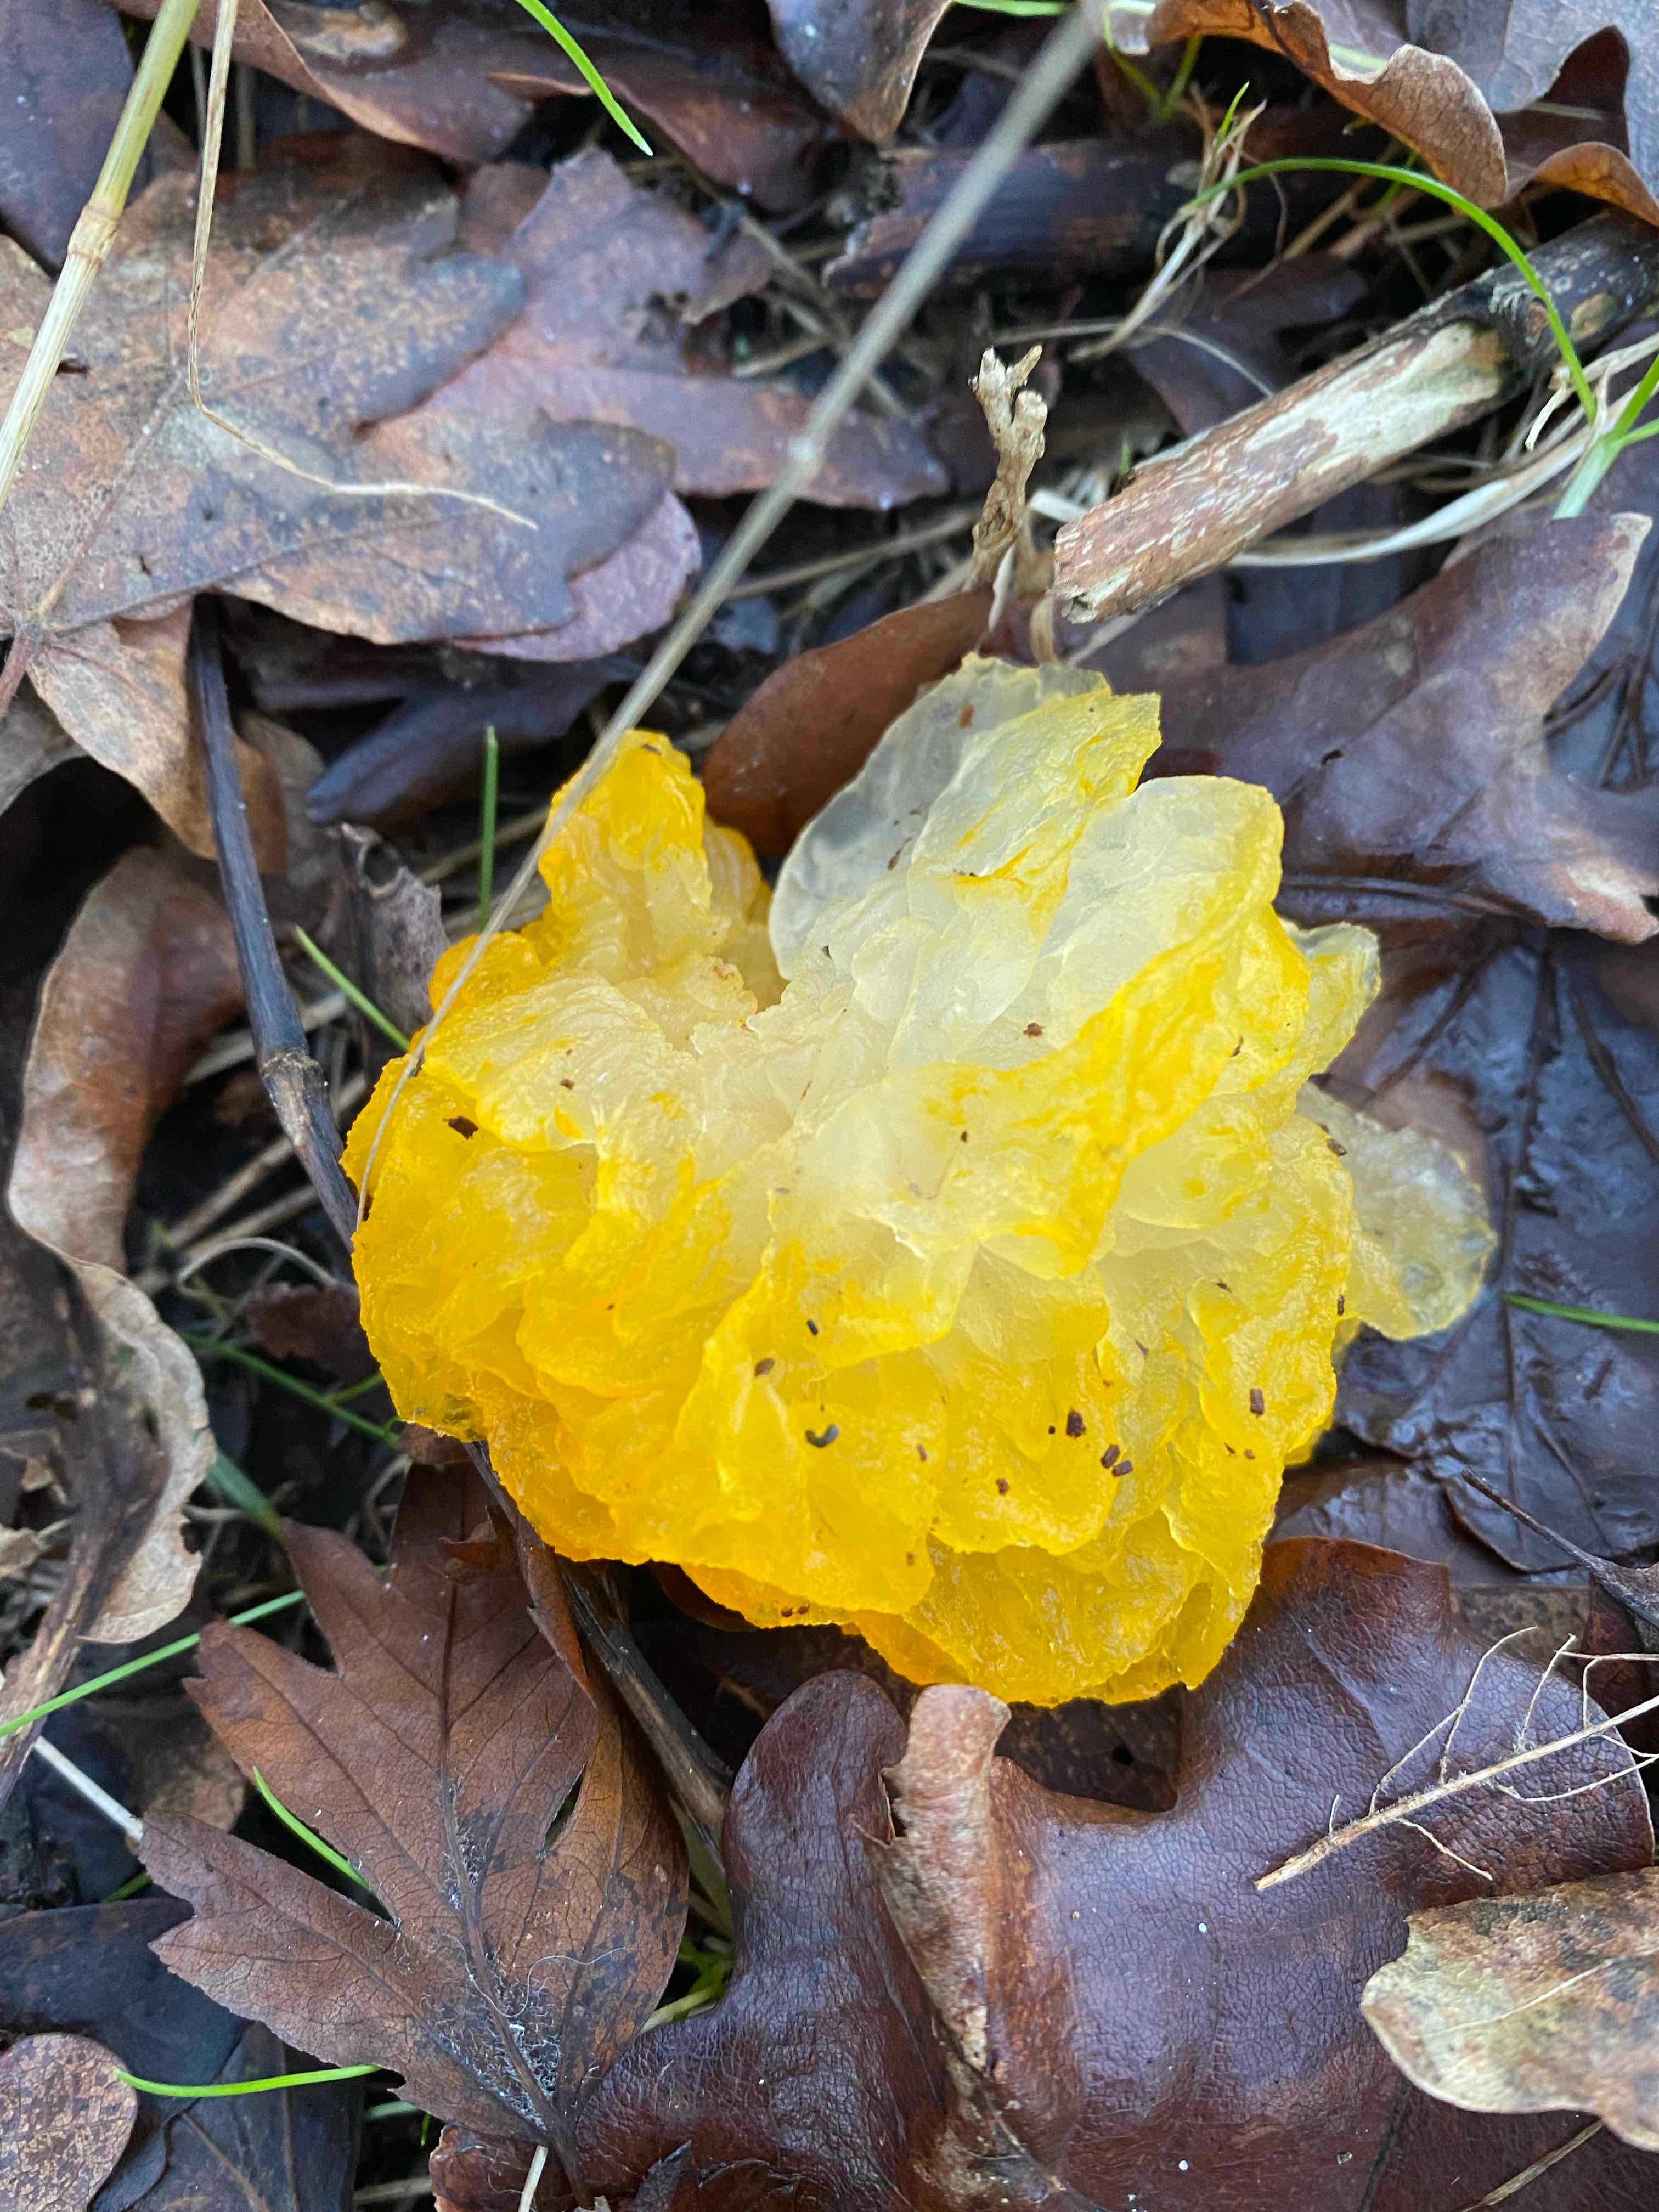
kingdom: Fungi
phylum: Basidiomycota
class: Tremellomycetes
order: Tremellales
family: Tremellaceae
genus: Tremella
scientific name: Tremella mesenterica
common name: gul bævresvamp
